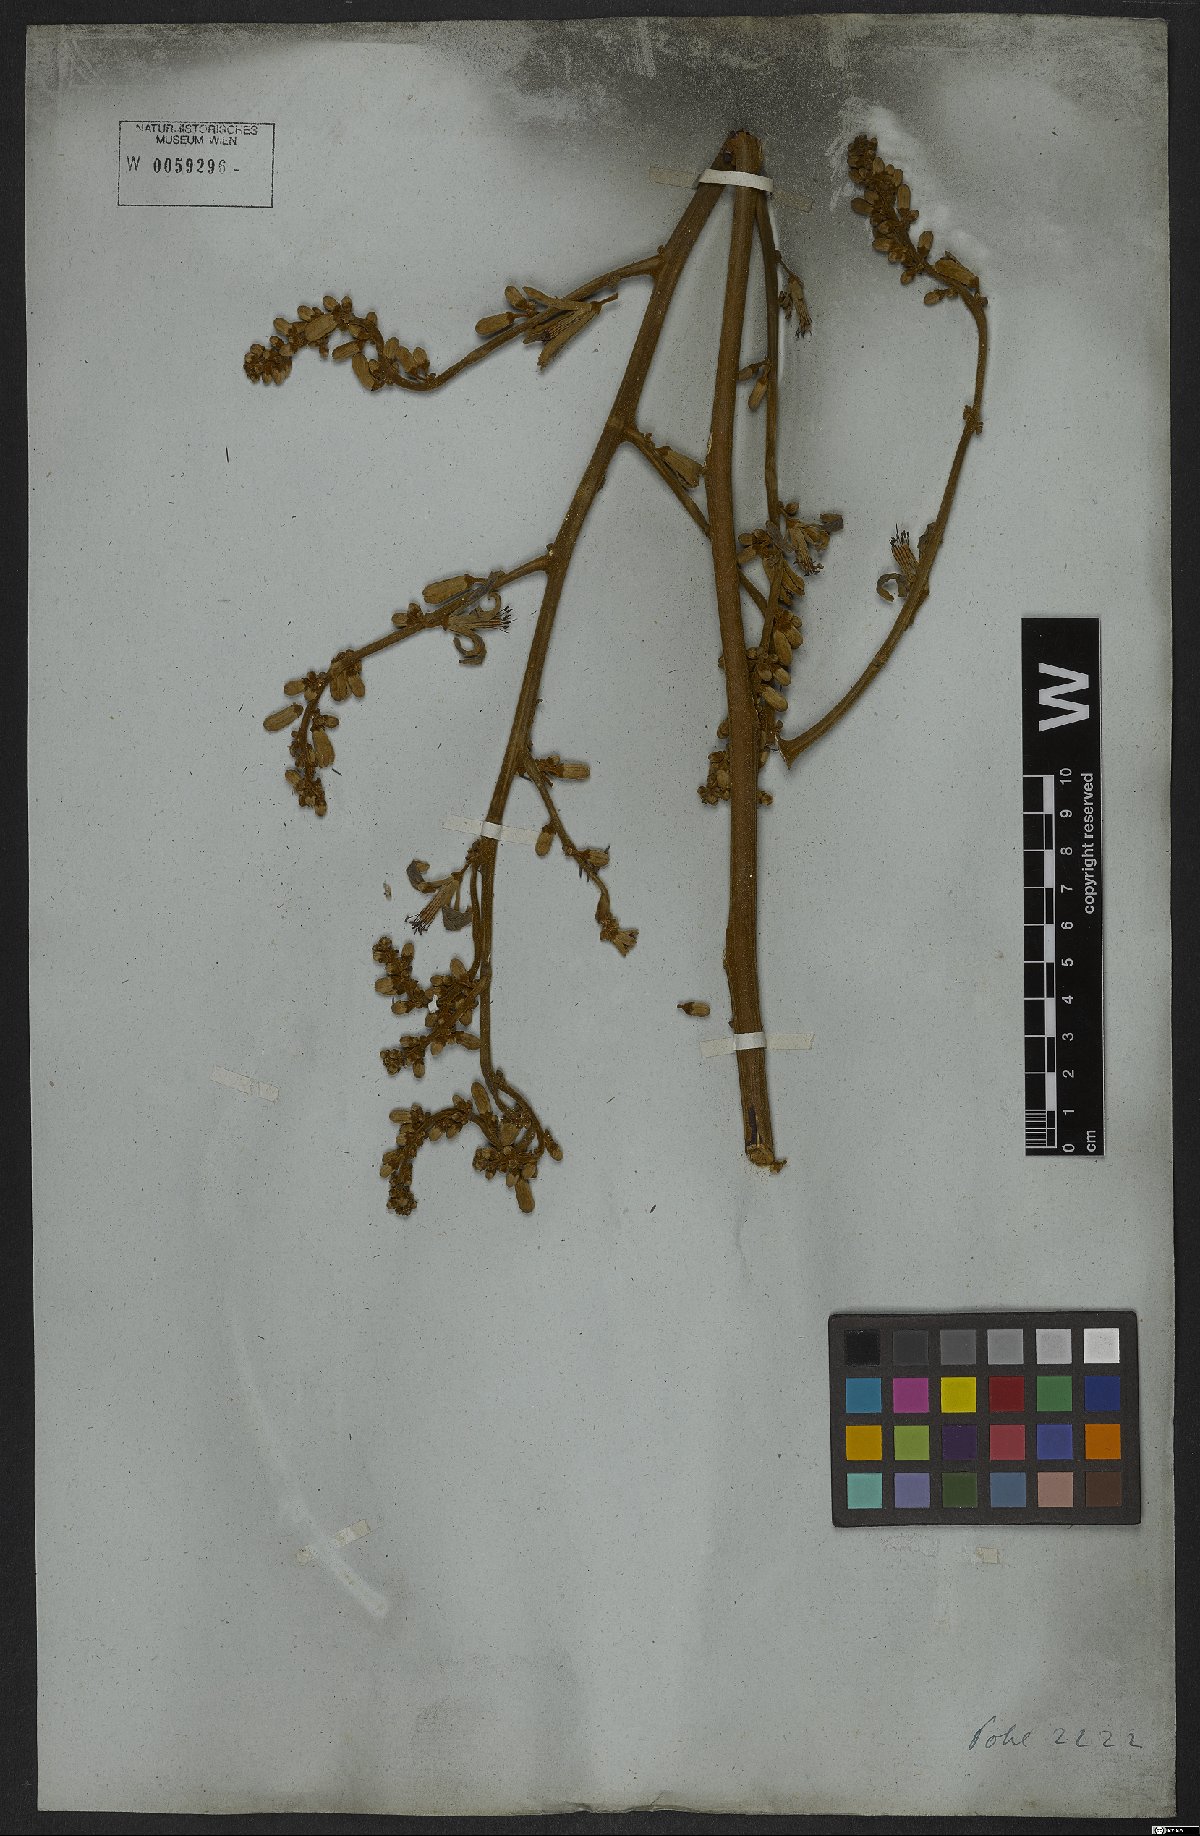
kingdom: Plantae
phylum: Tracheophyta
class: Magnoliopsida
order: Sapindales
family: Simaroubaceae
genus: Homalolepis
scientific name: Homalolepis trichilioides
